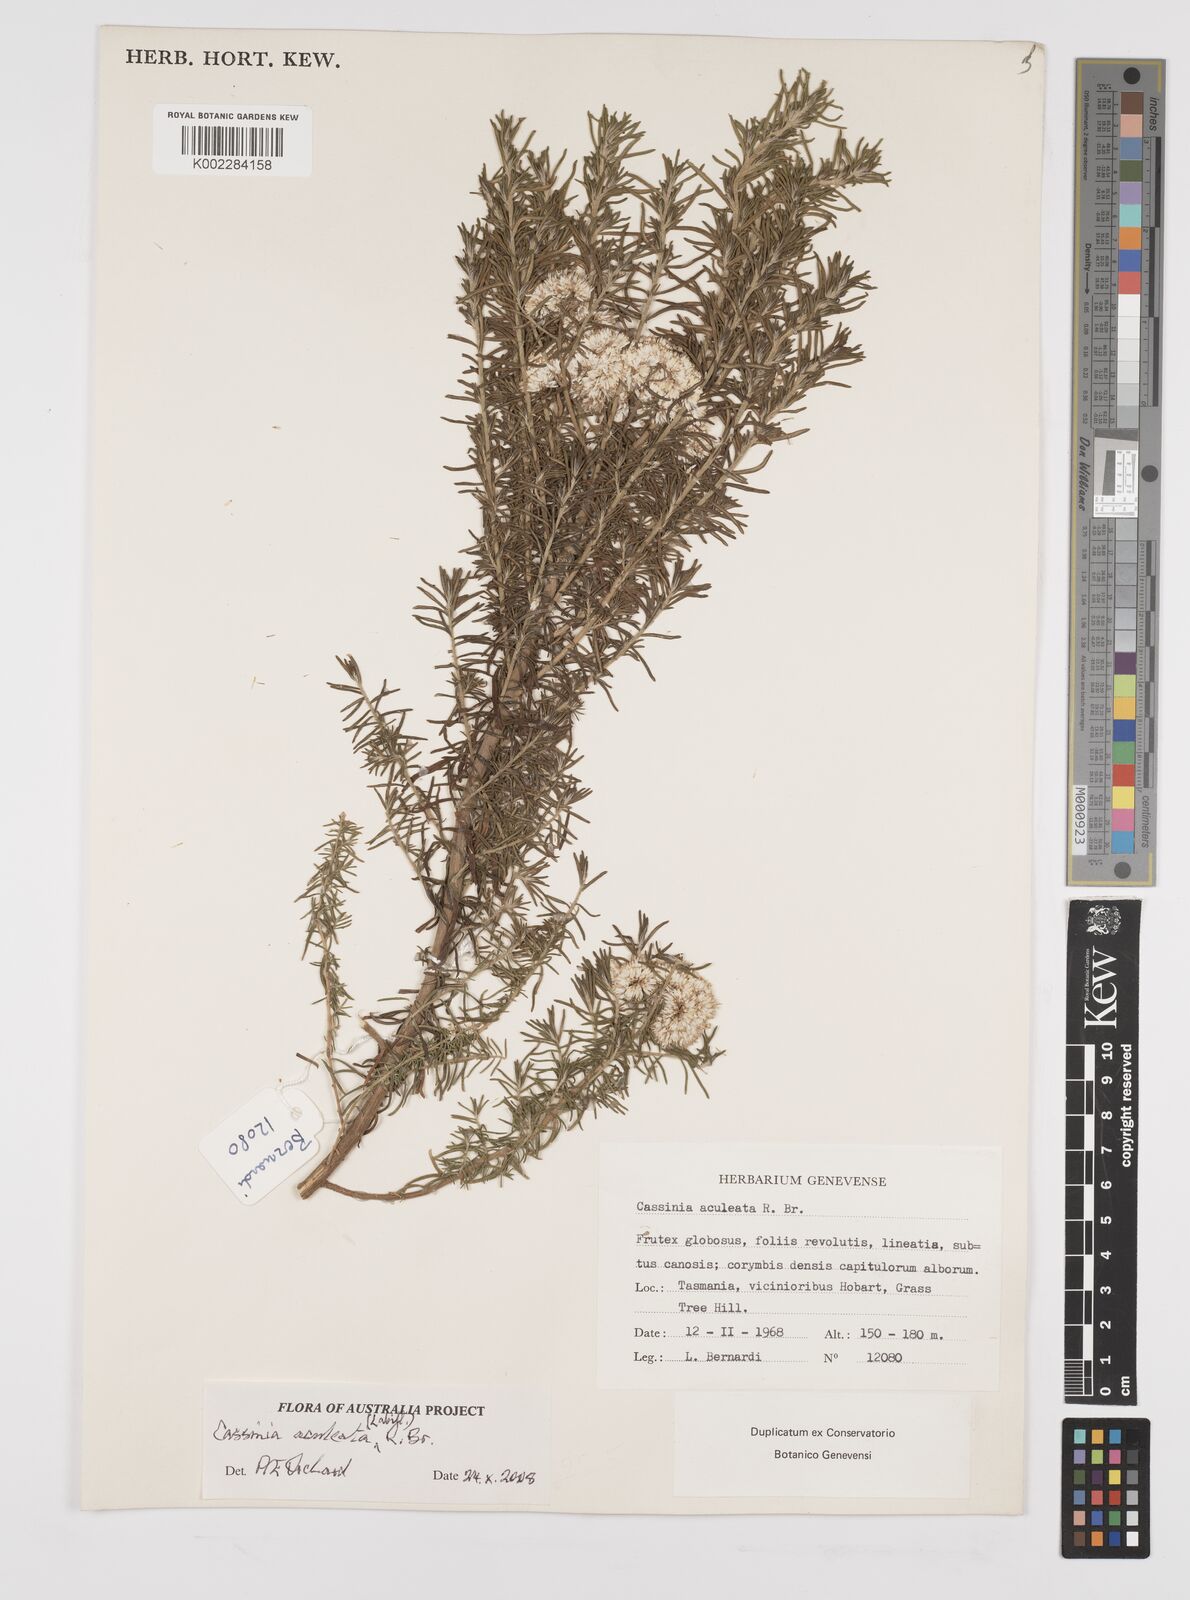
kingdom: Plantae
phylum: Tracheophyta
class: Magnoliopsida
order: Asterales
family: Asteraceae
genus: Cassinia
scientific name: Cassinia aculeata
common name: Australian tauhinu
